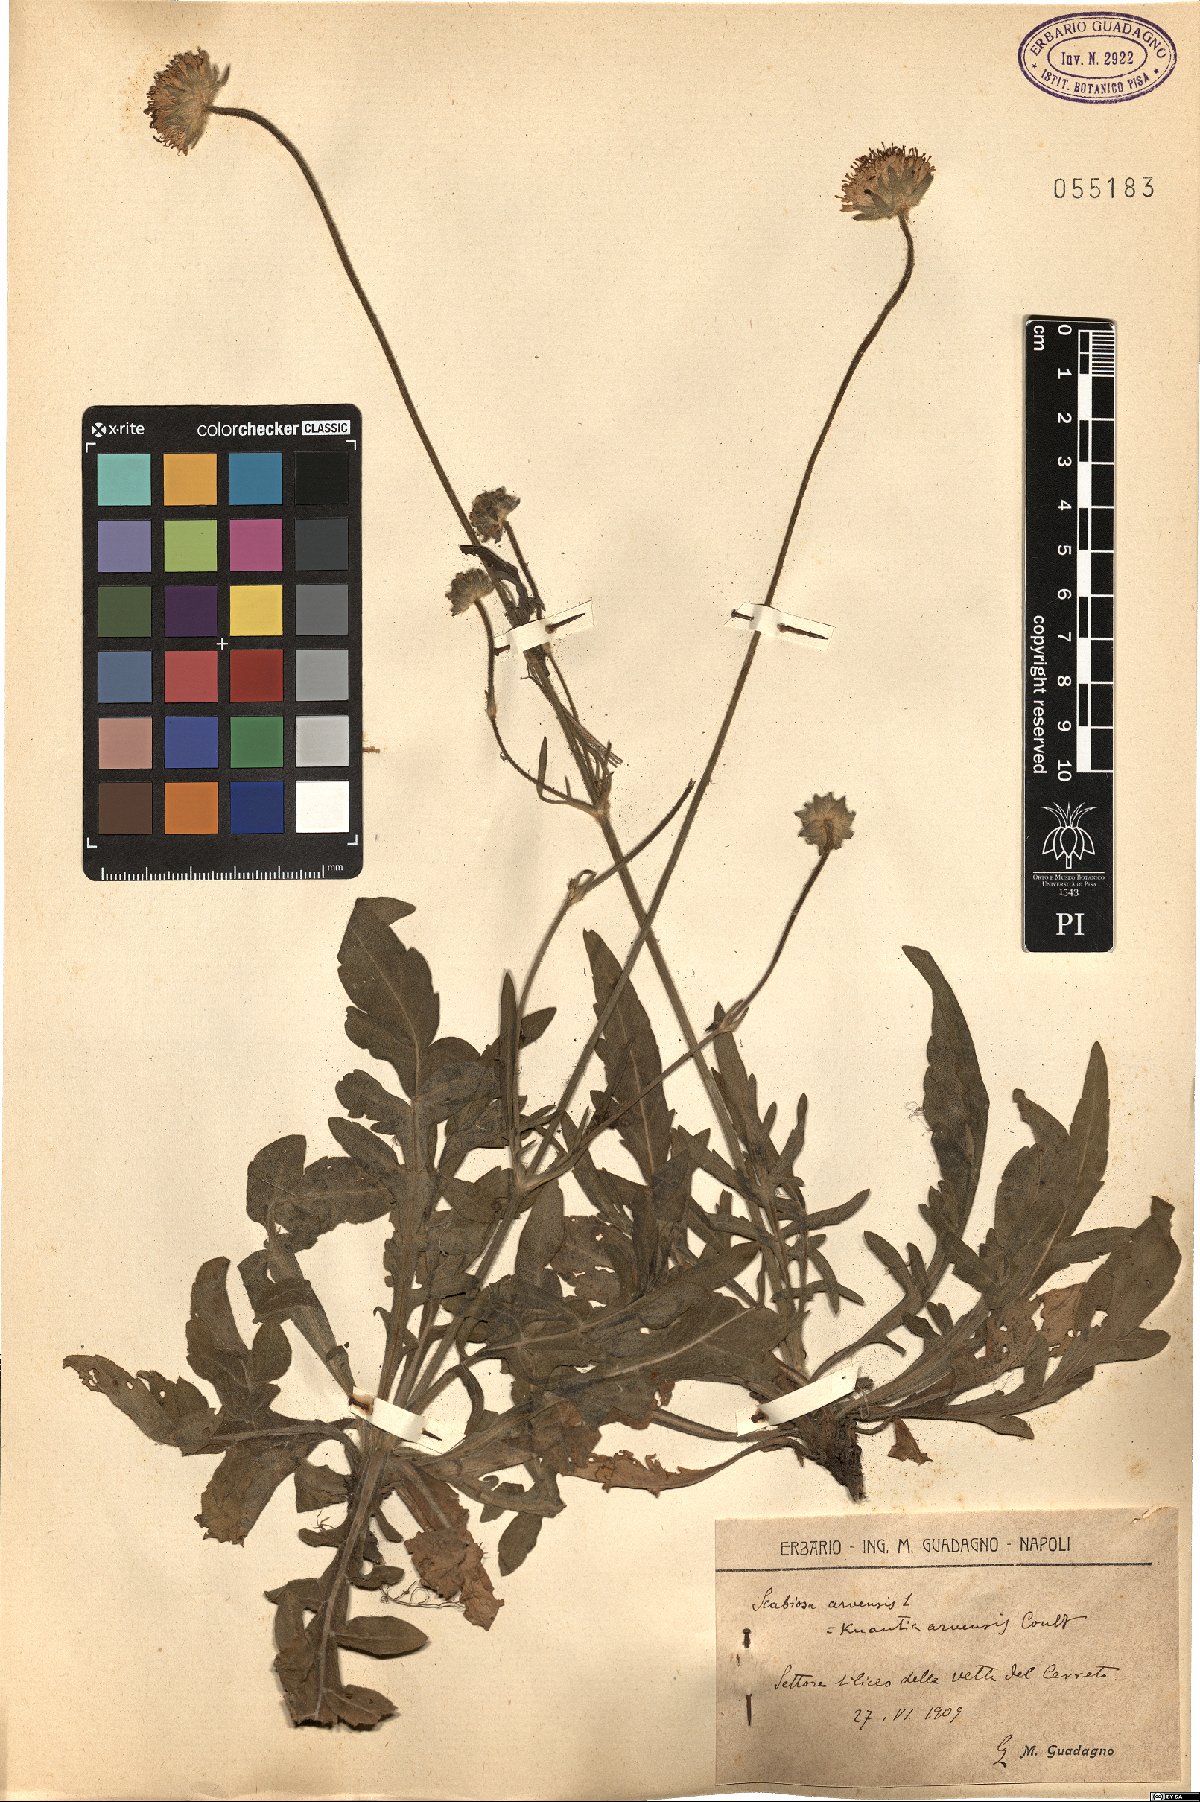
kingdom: Plantae
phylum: Tracheophyta
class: Magnoliopsida
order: Dipsacales
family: Caprifoliaceae
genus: Knautia
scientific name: Knautia arvensis
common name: Field scabiosa
